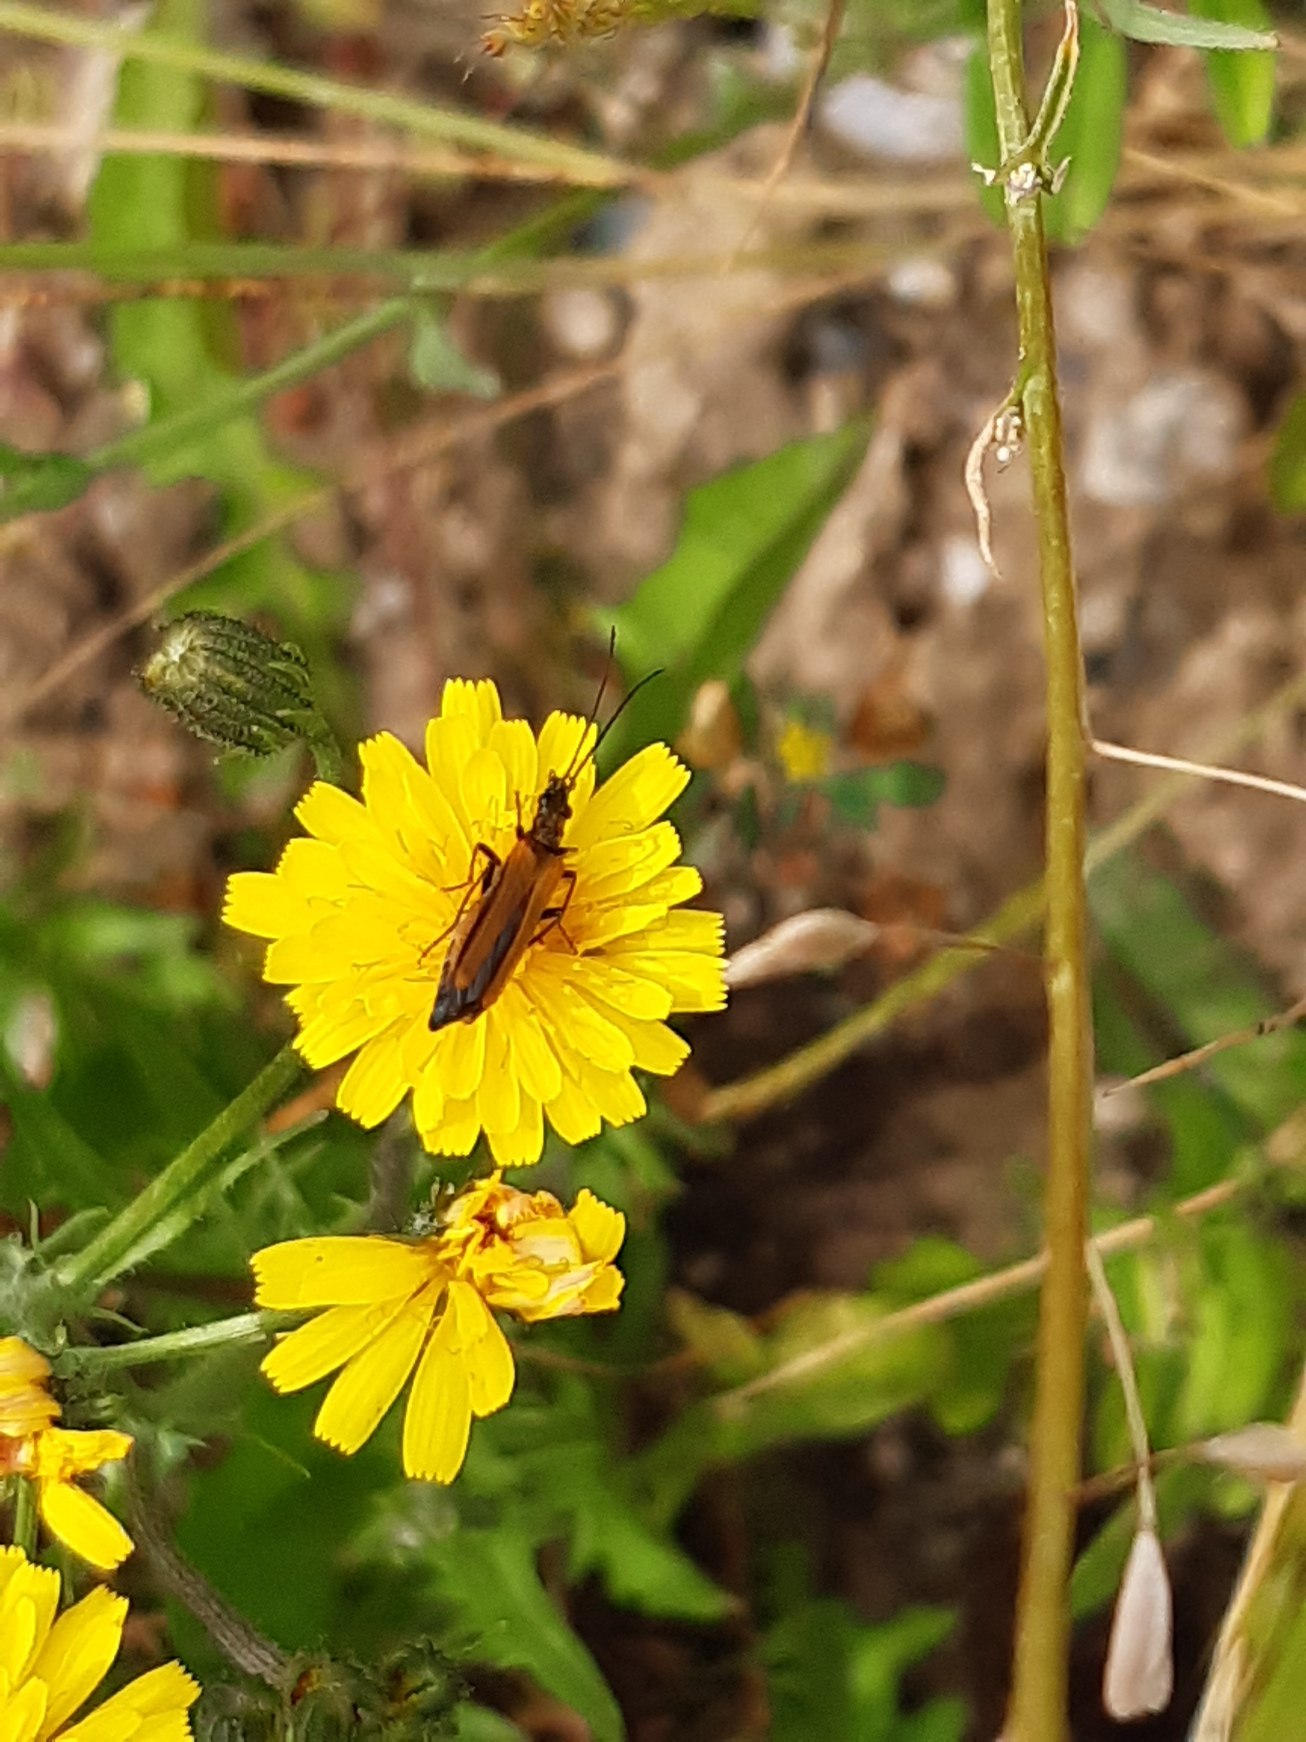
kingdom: Animalia
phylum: Arthropoda
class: Insecta
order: Coleoptera
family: Oedemeridae
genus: Oedemera
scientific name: Oedemera femorata
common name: Gulvinget solbille
